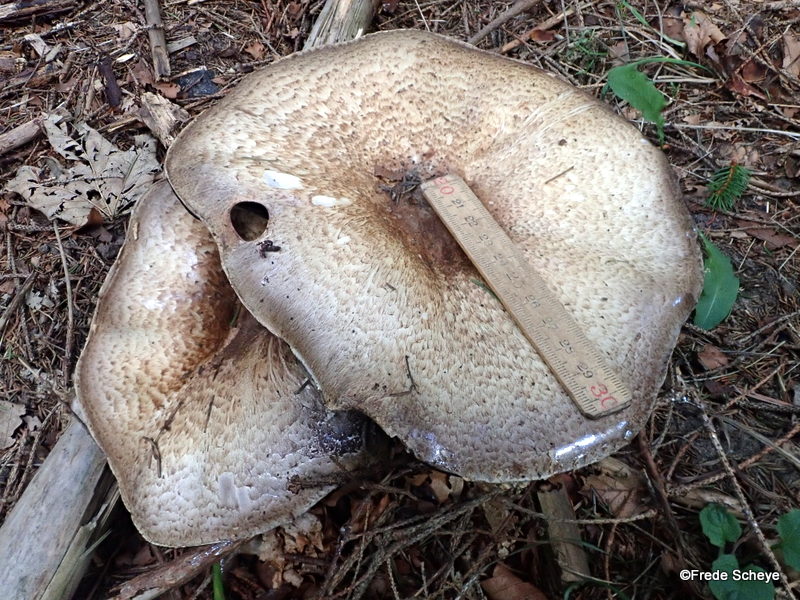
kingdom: Fungi
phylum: Basidiomycota
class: Agaricomycetes
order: Agaricales
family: Agaricaceae
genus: Agaricus
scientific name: Agaricus augustus
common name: prægtig champignon
